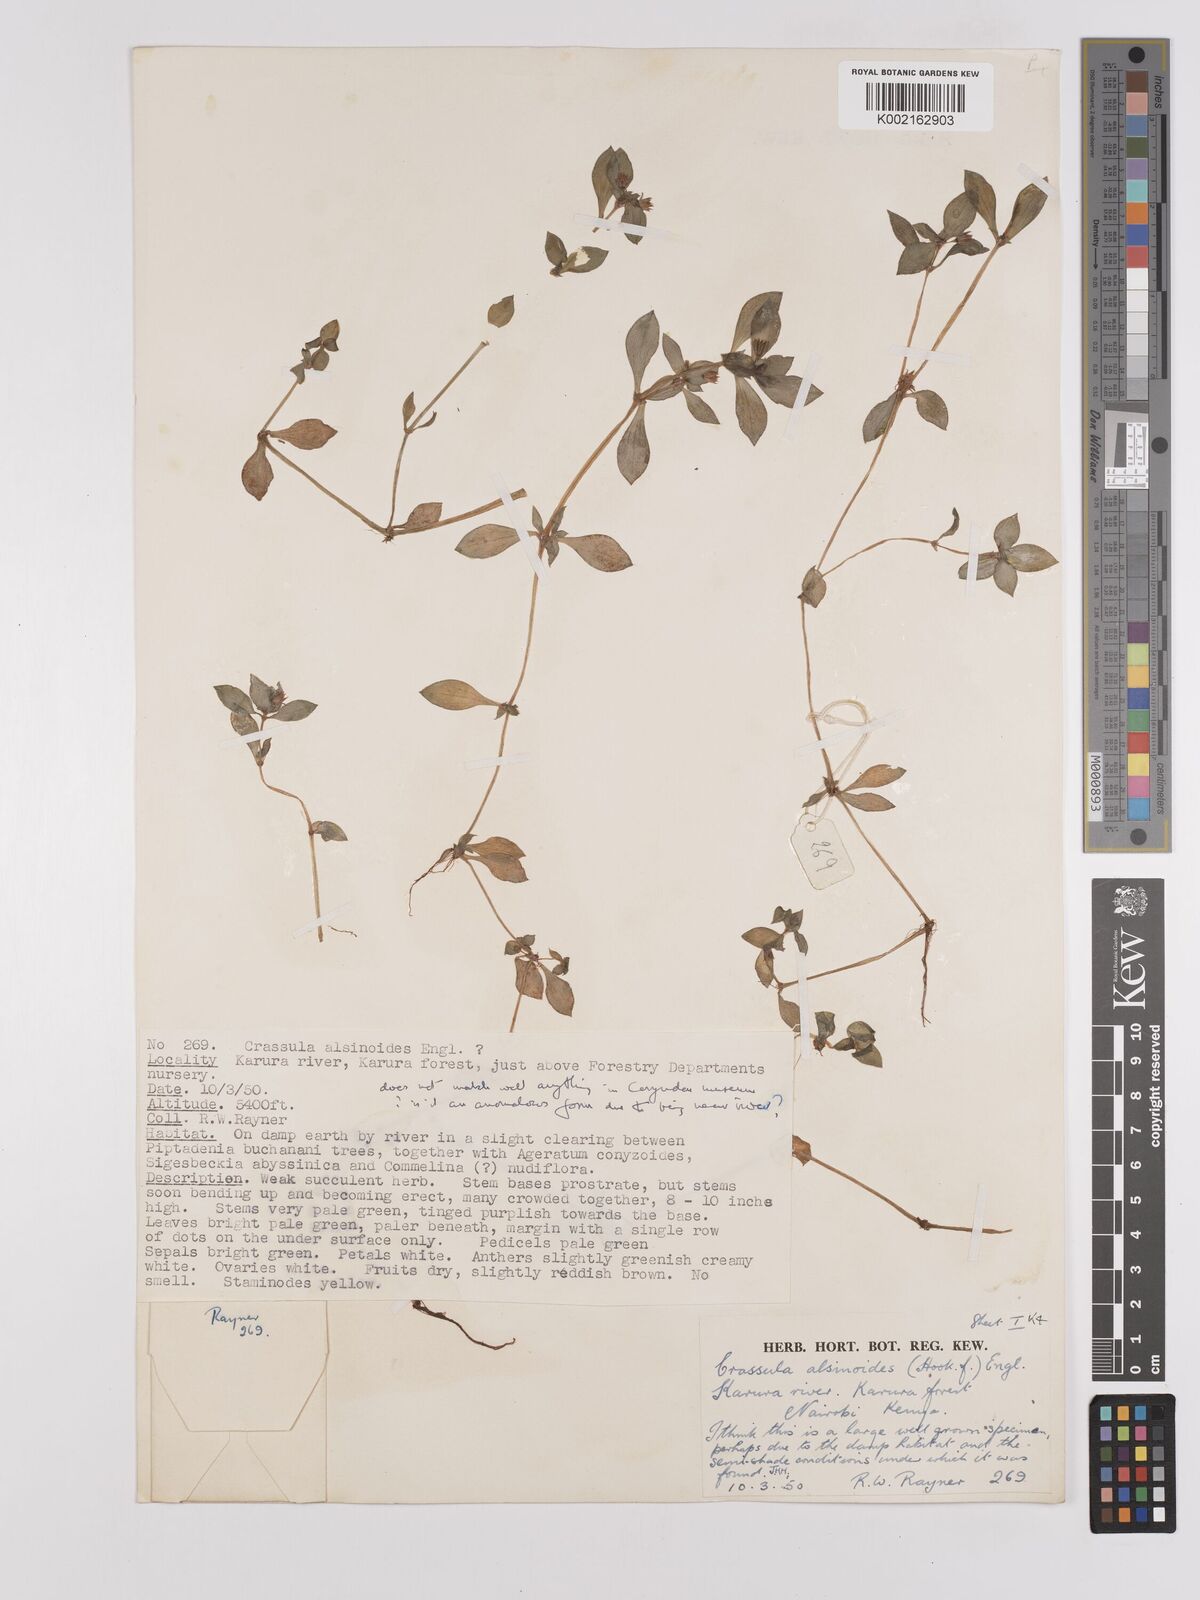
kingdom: Plantae
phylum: Tracheophyta
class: Magnoliopsida
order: Saxifragales
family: Crassulaceae
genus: Crassula
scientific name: Crassula alsinoides
